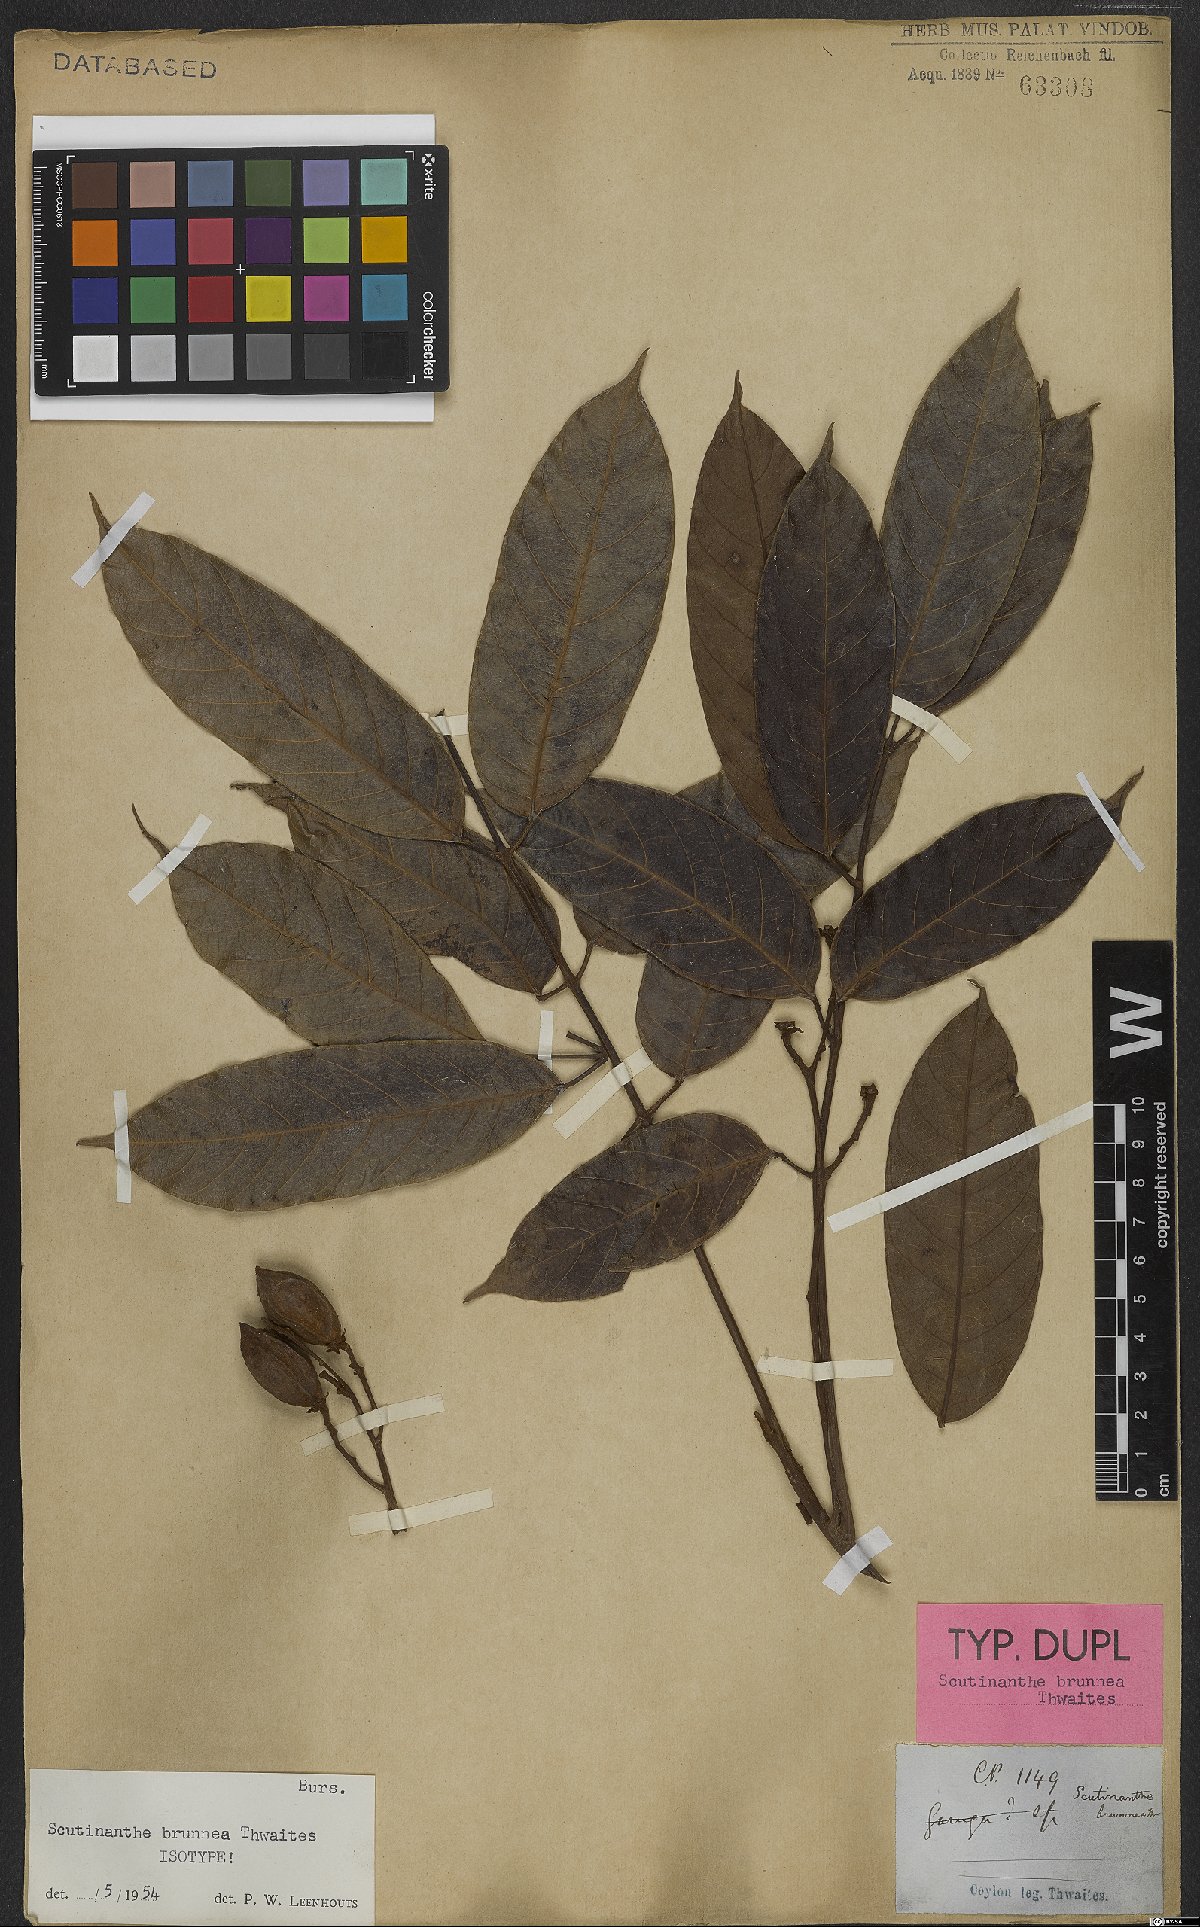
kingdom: Plantae
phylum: Tracheophyta
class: Magnoliopsida
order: Sapindales
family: Burseraceae
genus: Scutinanthe
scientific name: Scutinanthe brunnea
